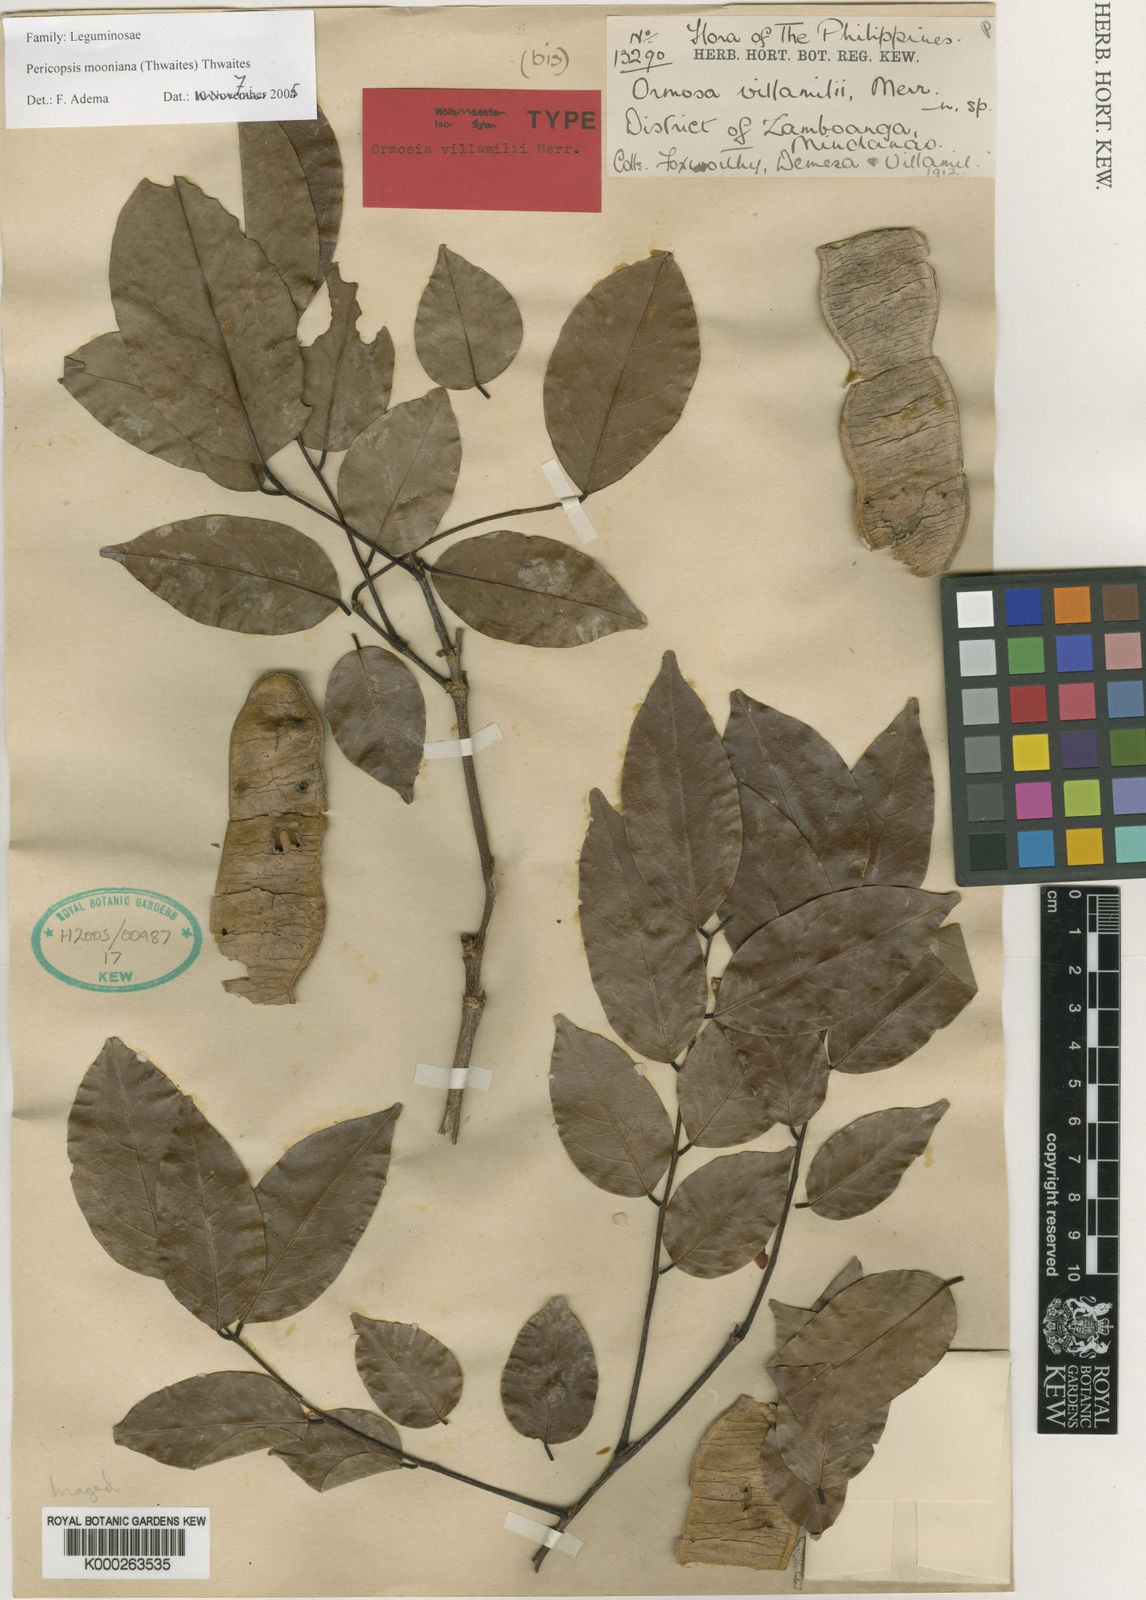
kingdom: Plantae
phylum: Tracheophyta
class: Magnoliopsida
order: Fabales
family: Fabaceae
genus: Pericopsis
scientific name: Pericopsis
